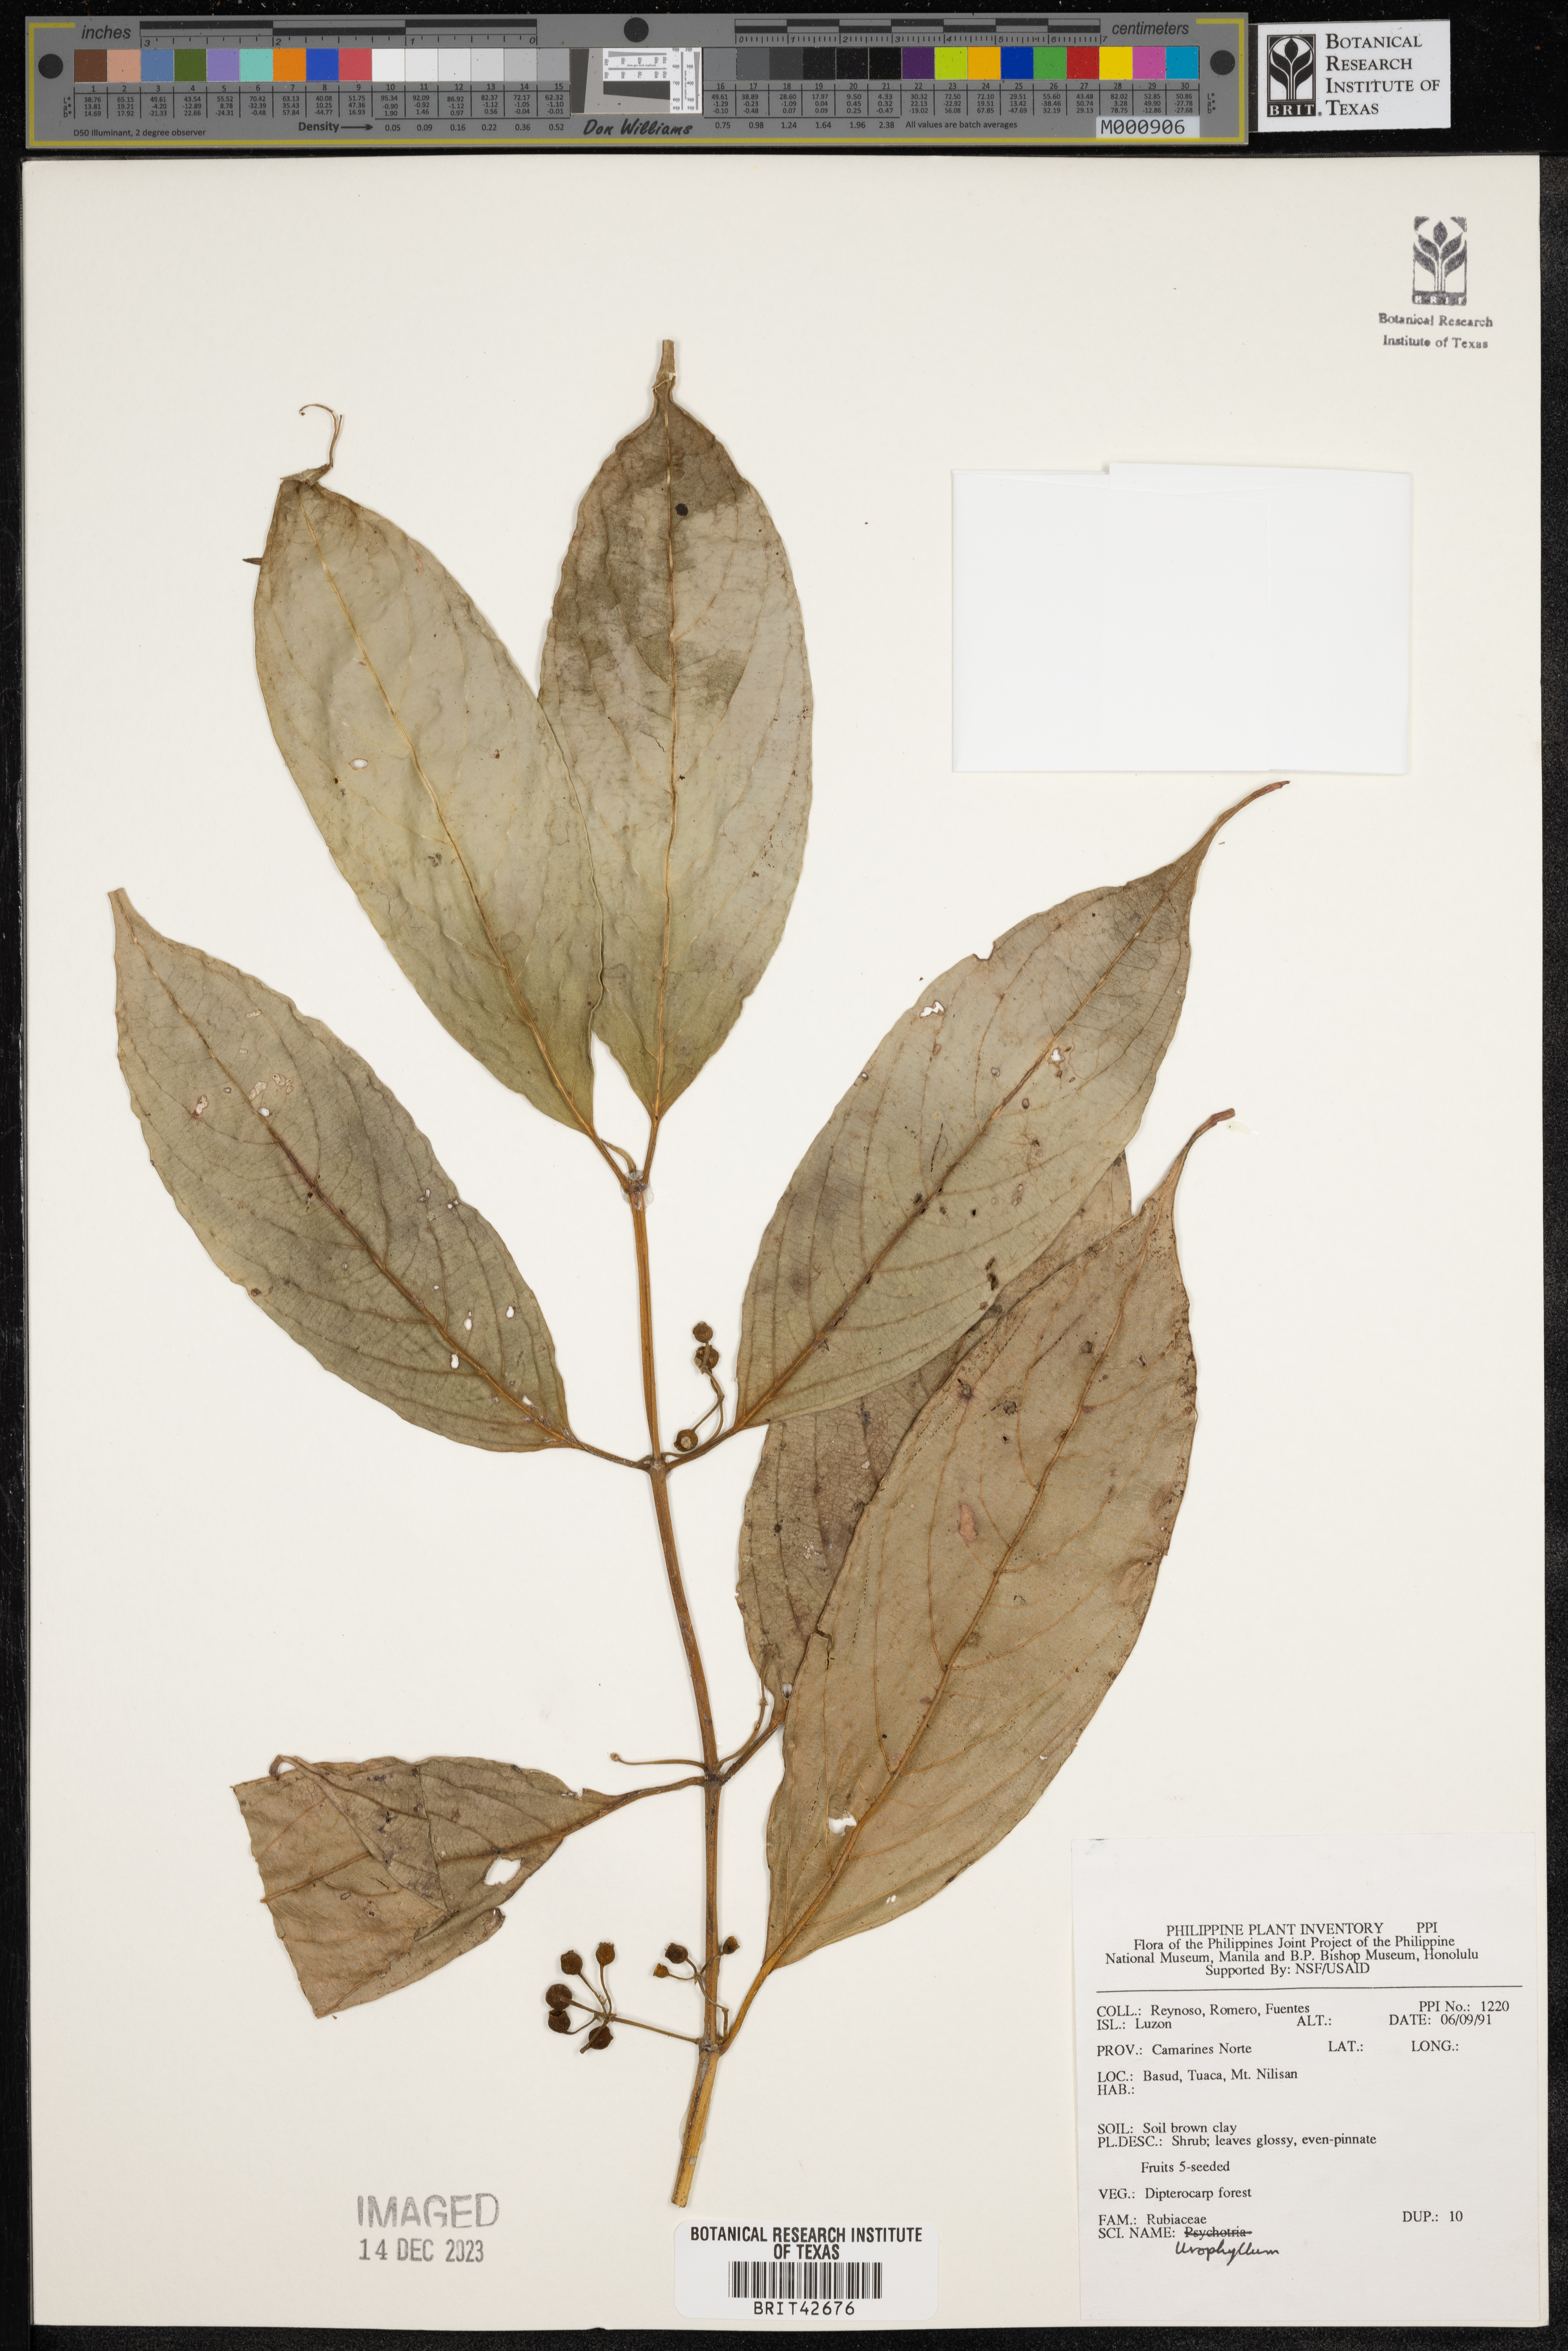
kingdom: Plantae
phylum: Tracheophyta
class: Magnoliopsida
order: Gentianales
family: Rubiaceae
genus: Urophyllum
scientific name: Urophyllum
